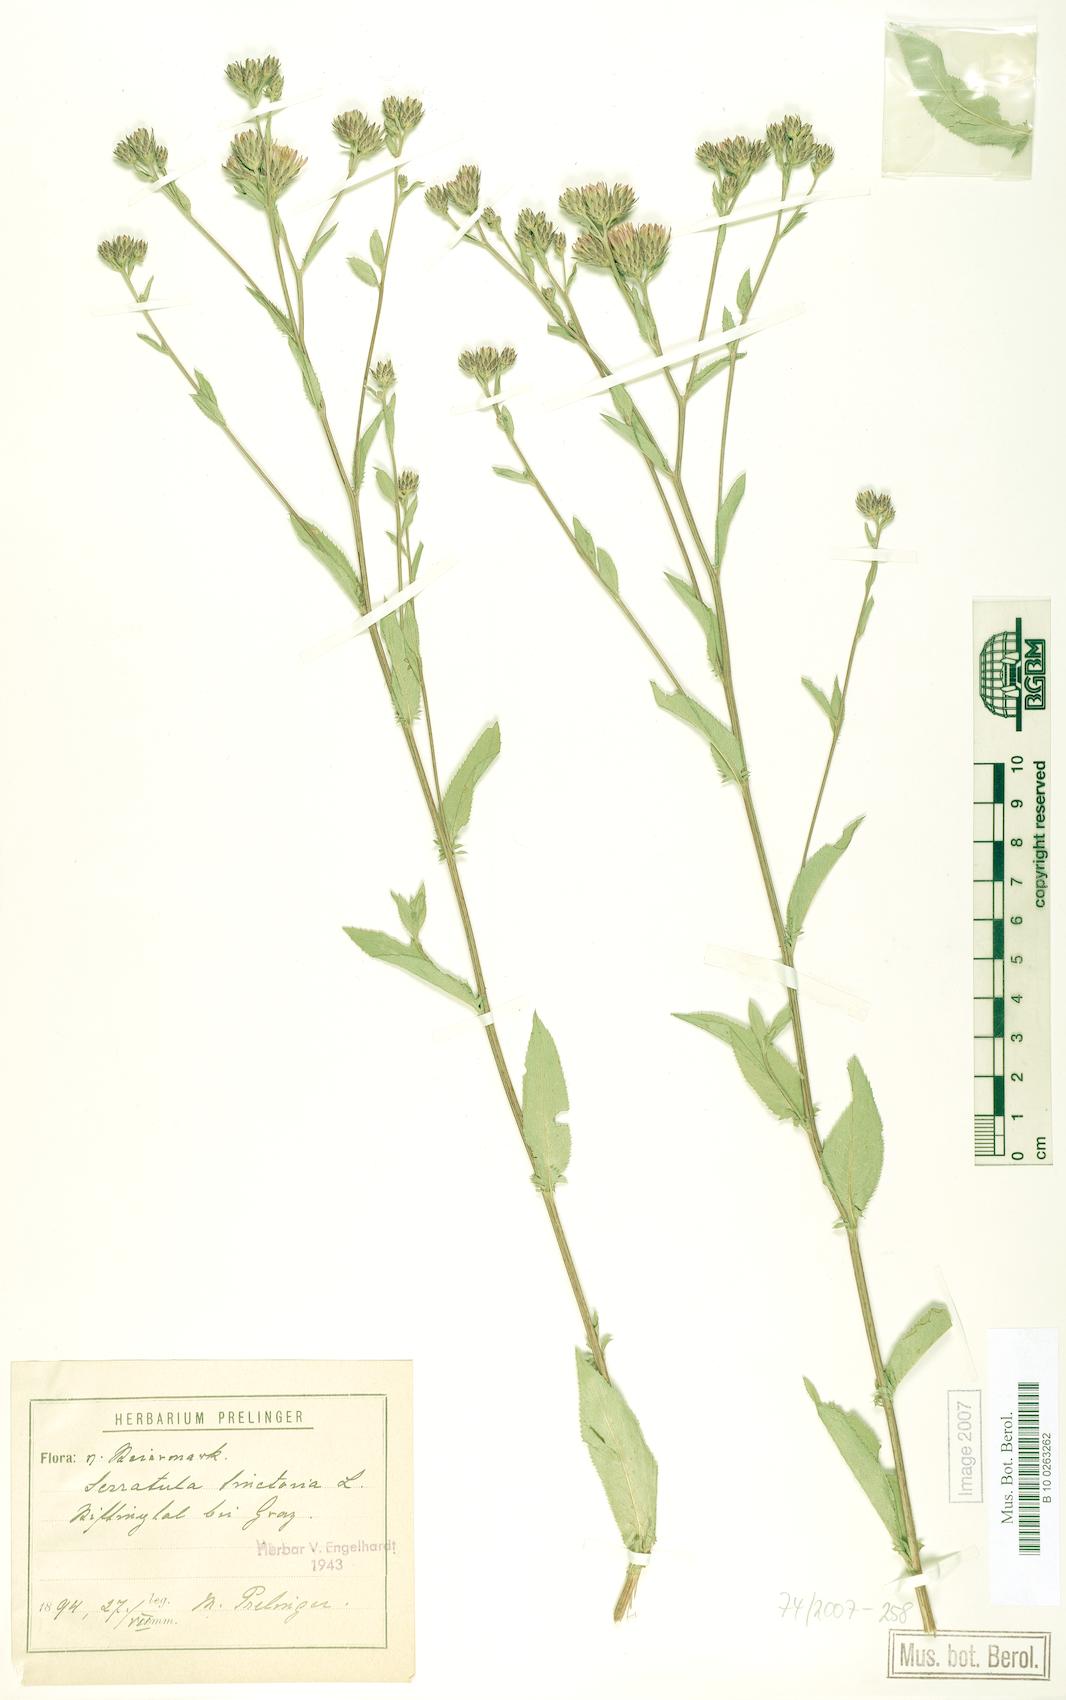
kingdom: Plantae
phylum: Tracheophyta
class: Magnoliopsida
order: Asterales
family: Asteraceae
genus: Serratula
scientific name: Serratula tinctoria
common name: Saw-wort
